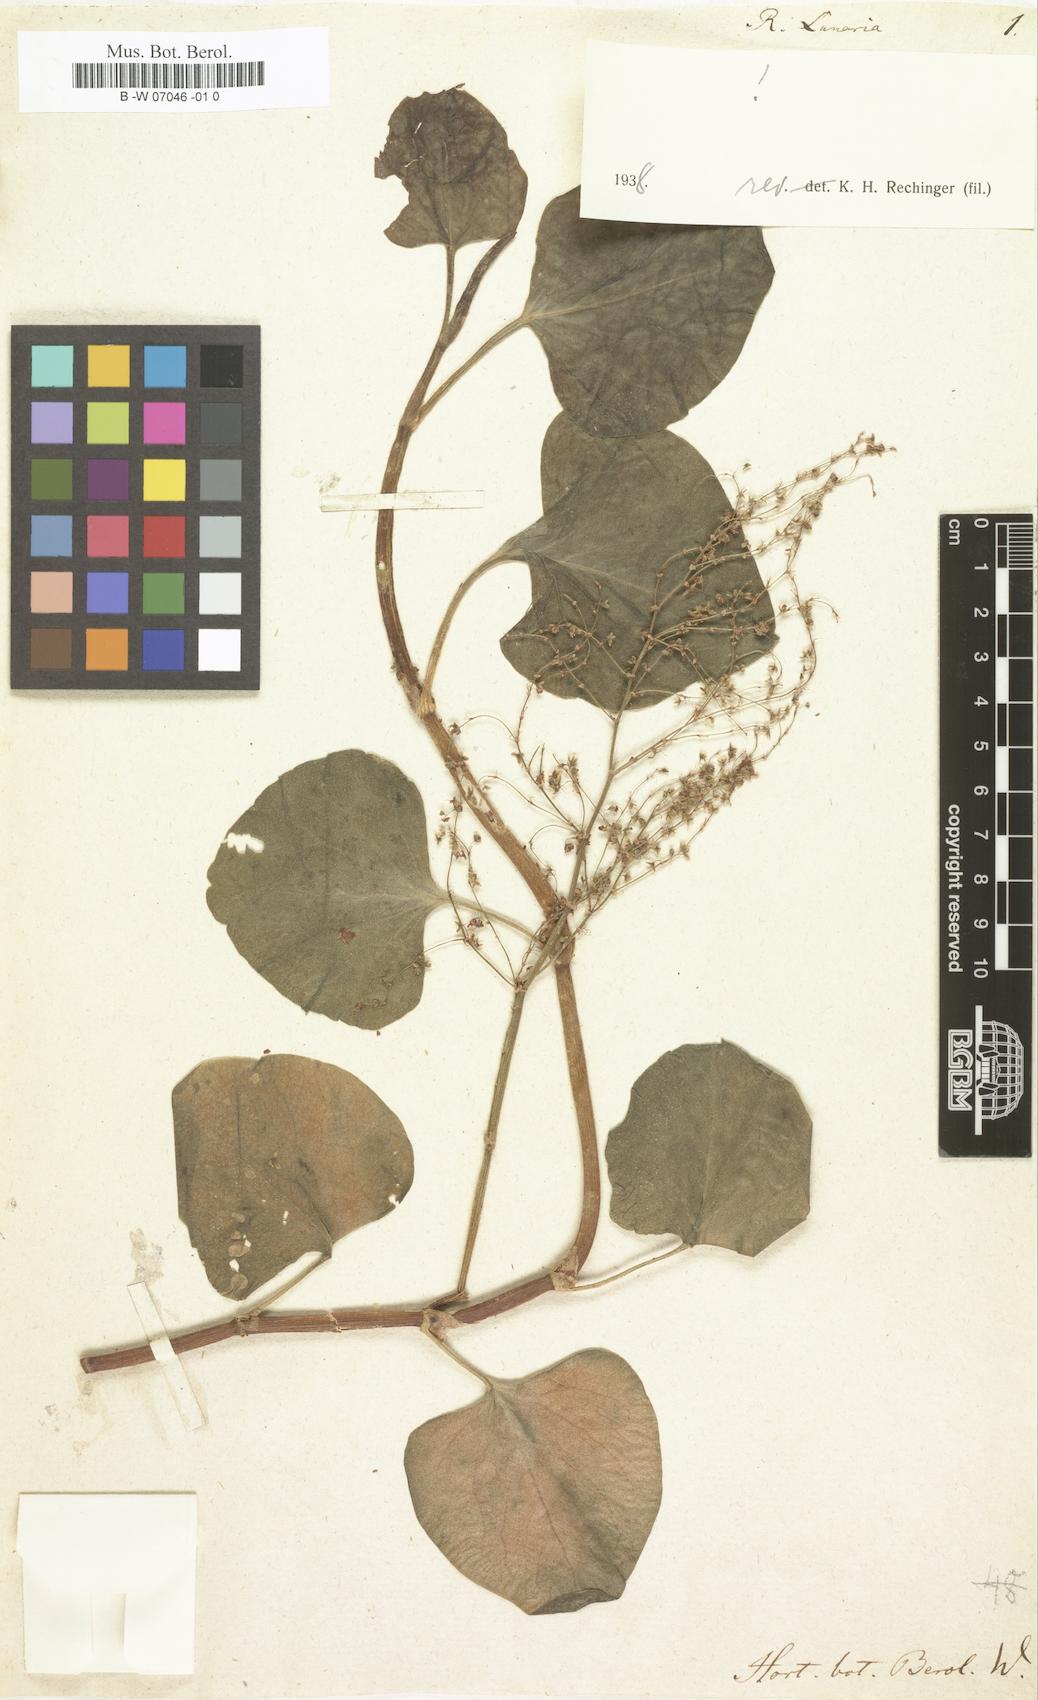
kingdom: Plantae
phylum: Tracheophyta
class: Magnoliopsida
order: Caryophyllales
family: Polygonaceae
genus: Rumex
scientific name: Rumex lunaria
